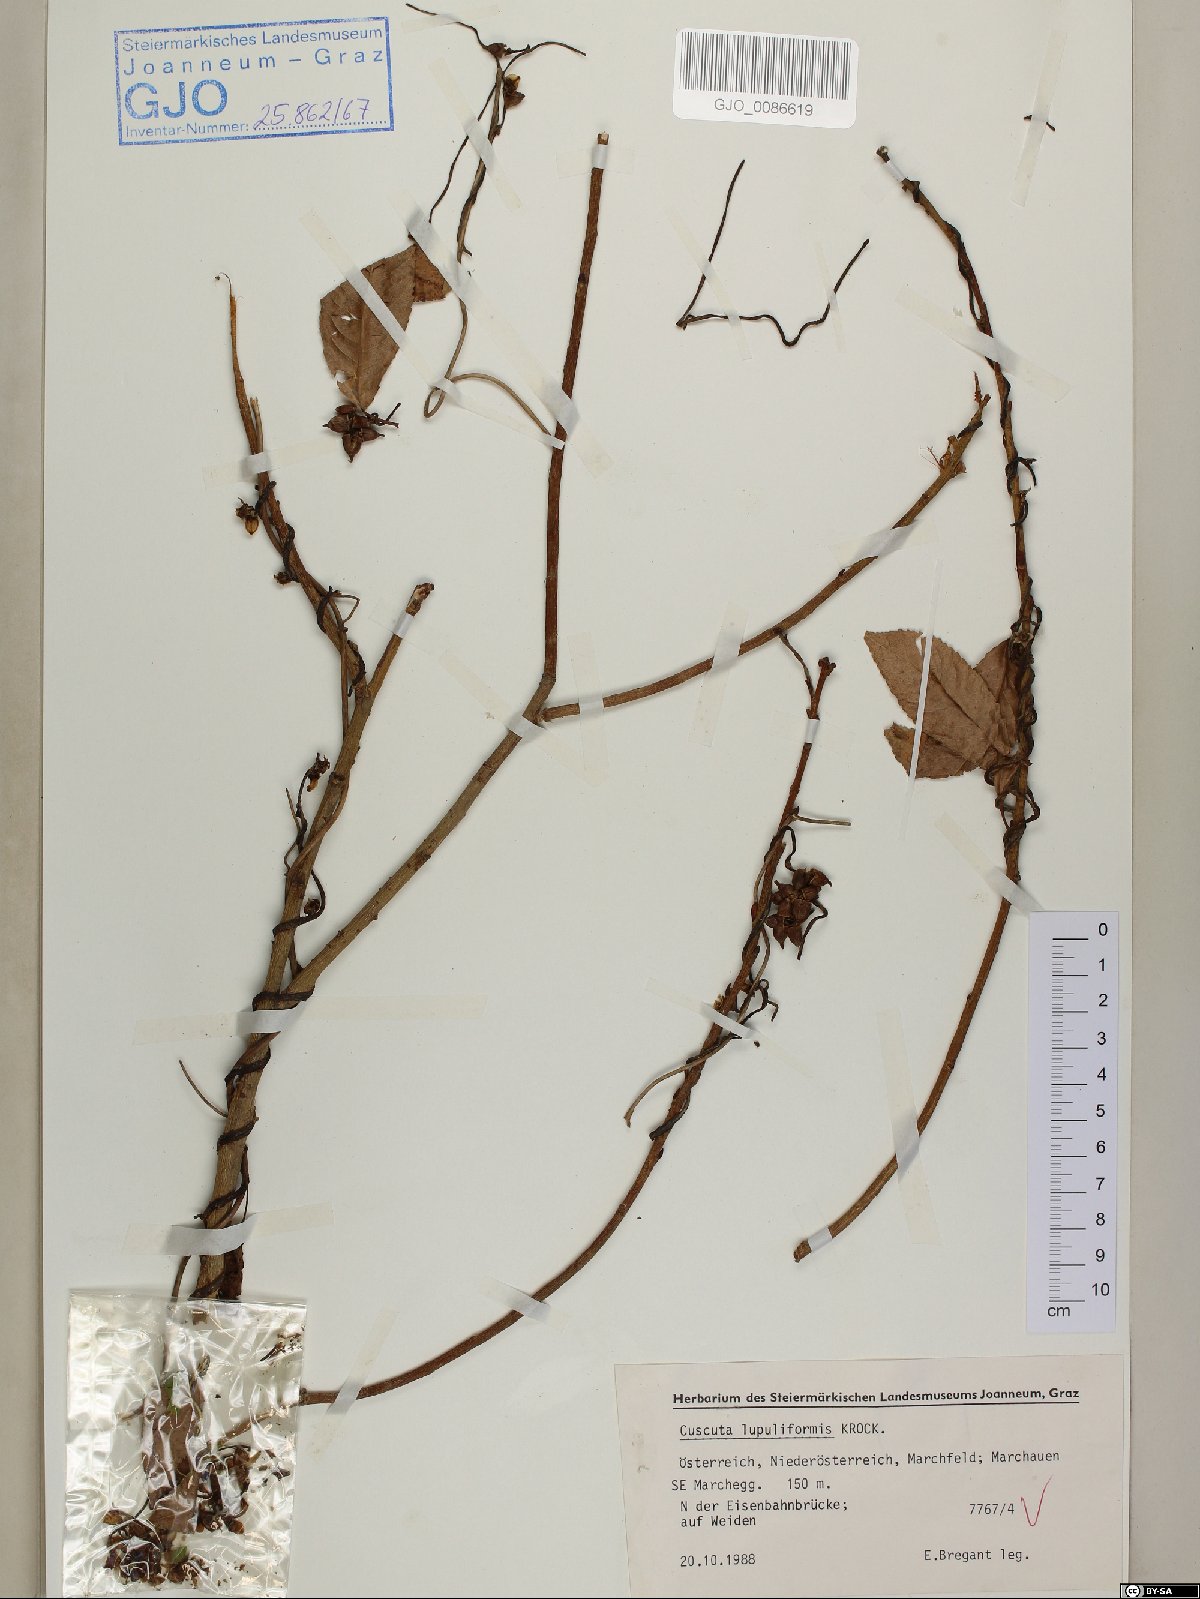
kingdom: Plantae
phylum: Tracheophyta
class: Magnoliopsida
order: Solanales
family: Convolvulaceae
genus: Cuscuta
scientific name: Cuscuta lupuliformis
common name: Hop dodder
